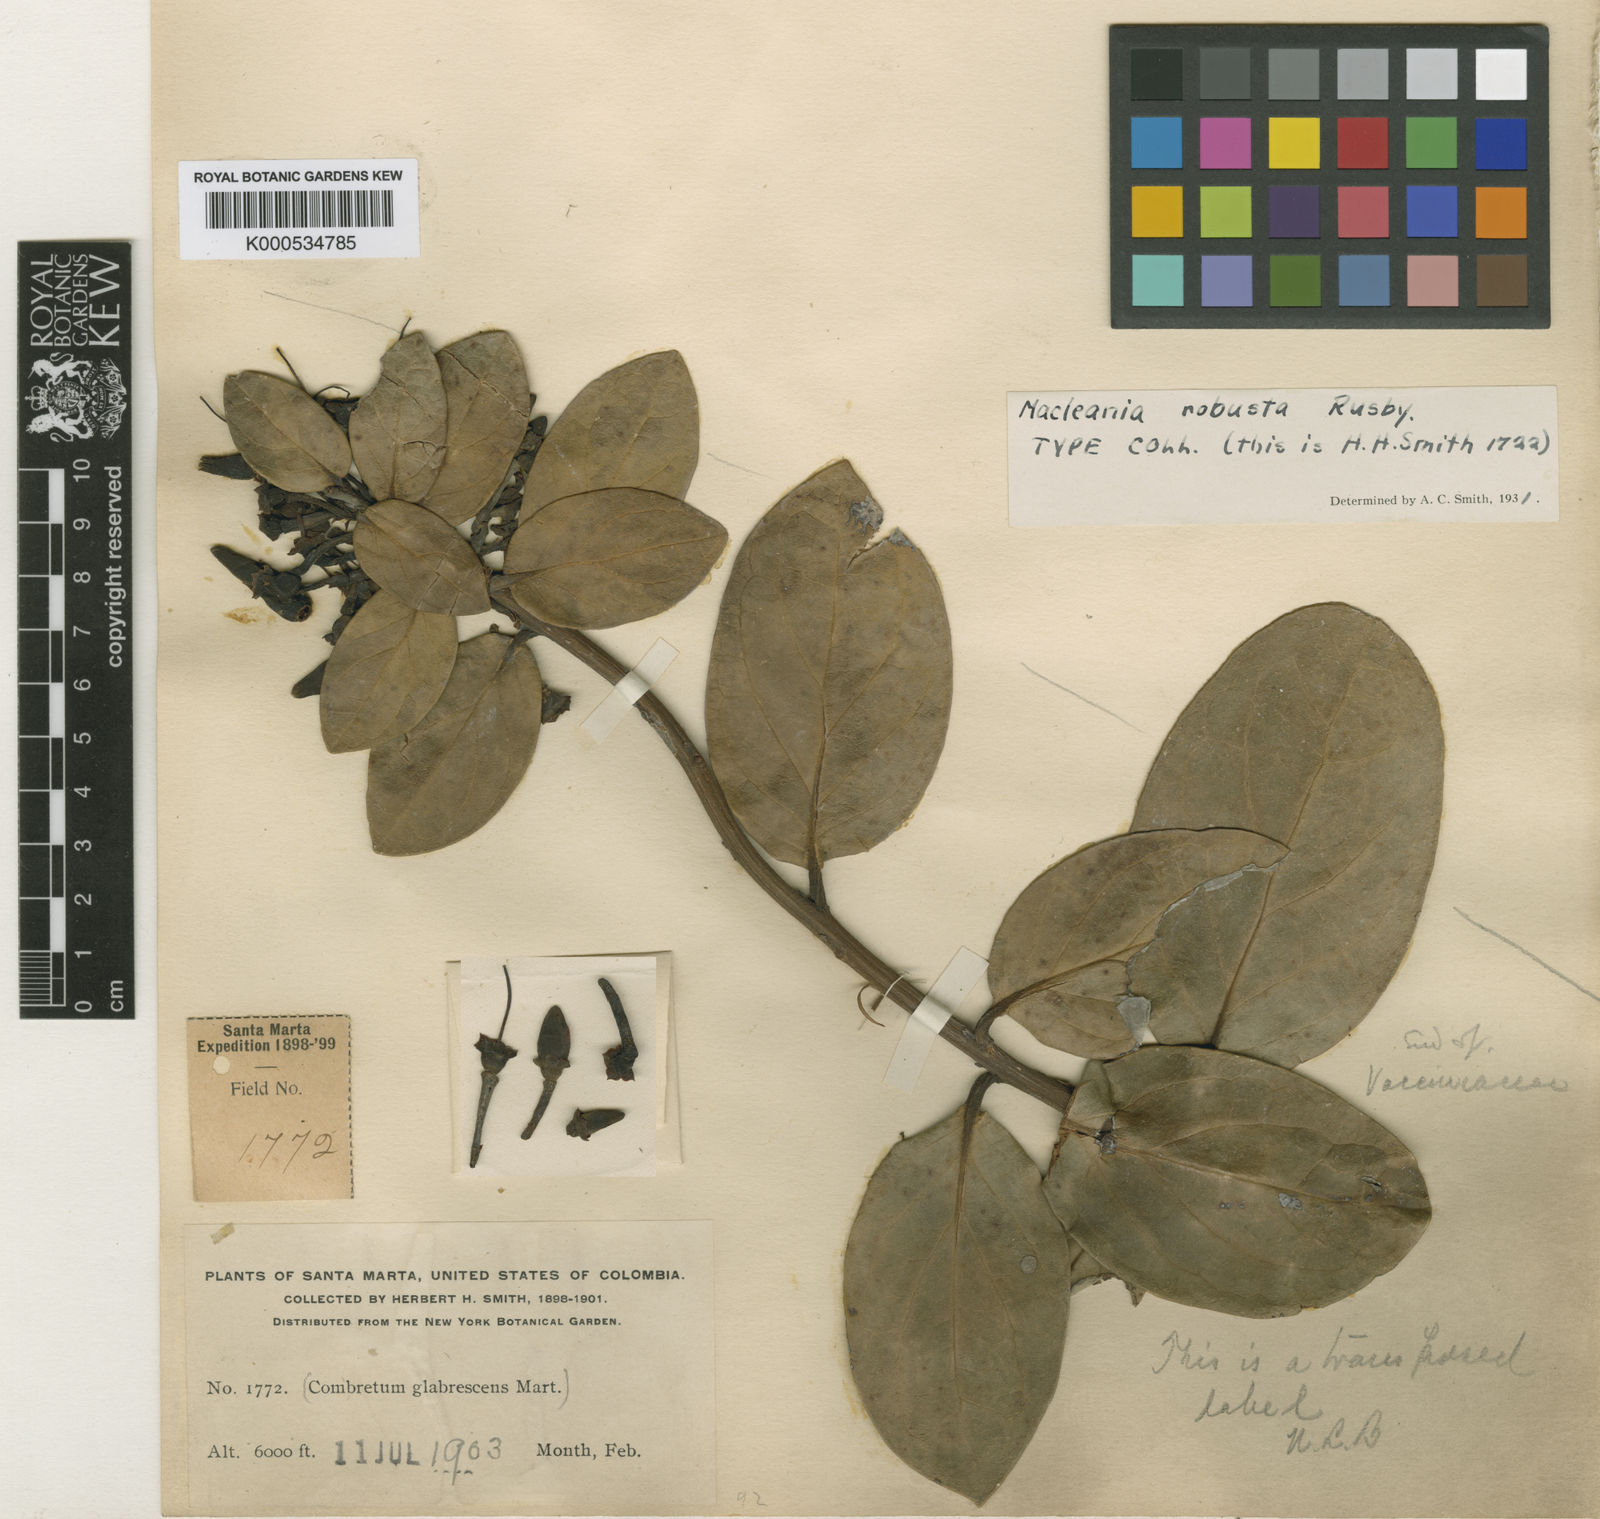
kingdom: Plantae
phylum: Tracheophyta
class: Magnoliopsida
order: Ericales
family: Ericaceae
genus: Macleania
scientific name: Macleania robusta
